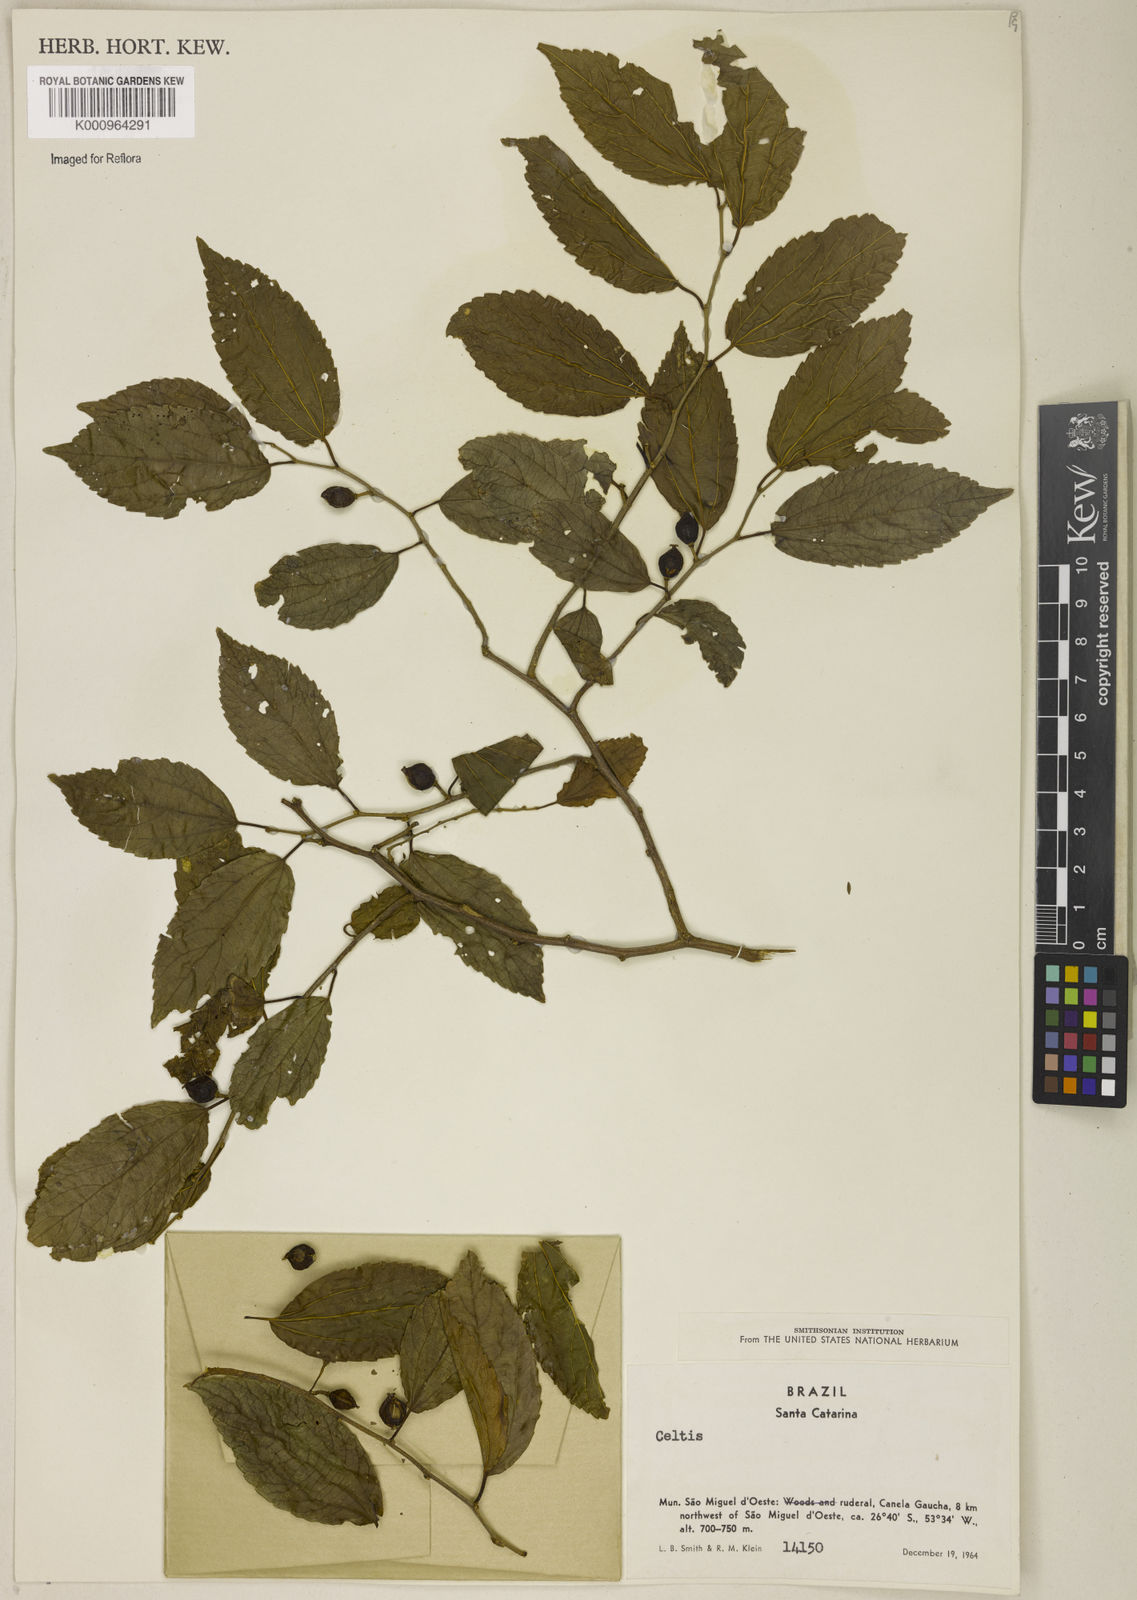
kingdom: Plantae
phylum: Tracheophyta
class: Magnoliopsida
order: Rosales
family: Cannabaceae
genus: Celtis
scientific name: Celtis
